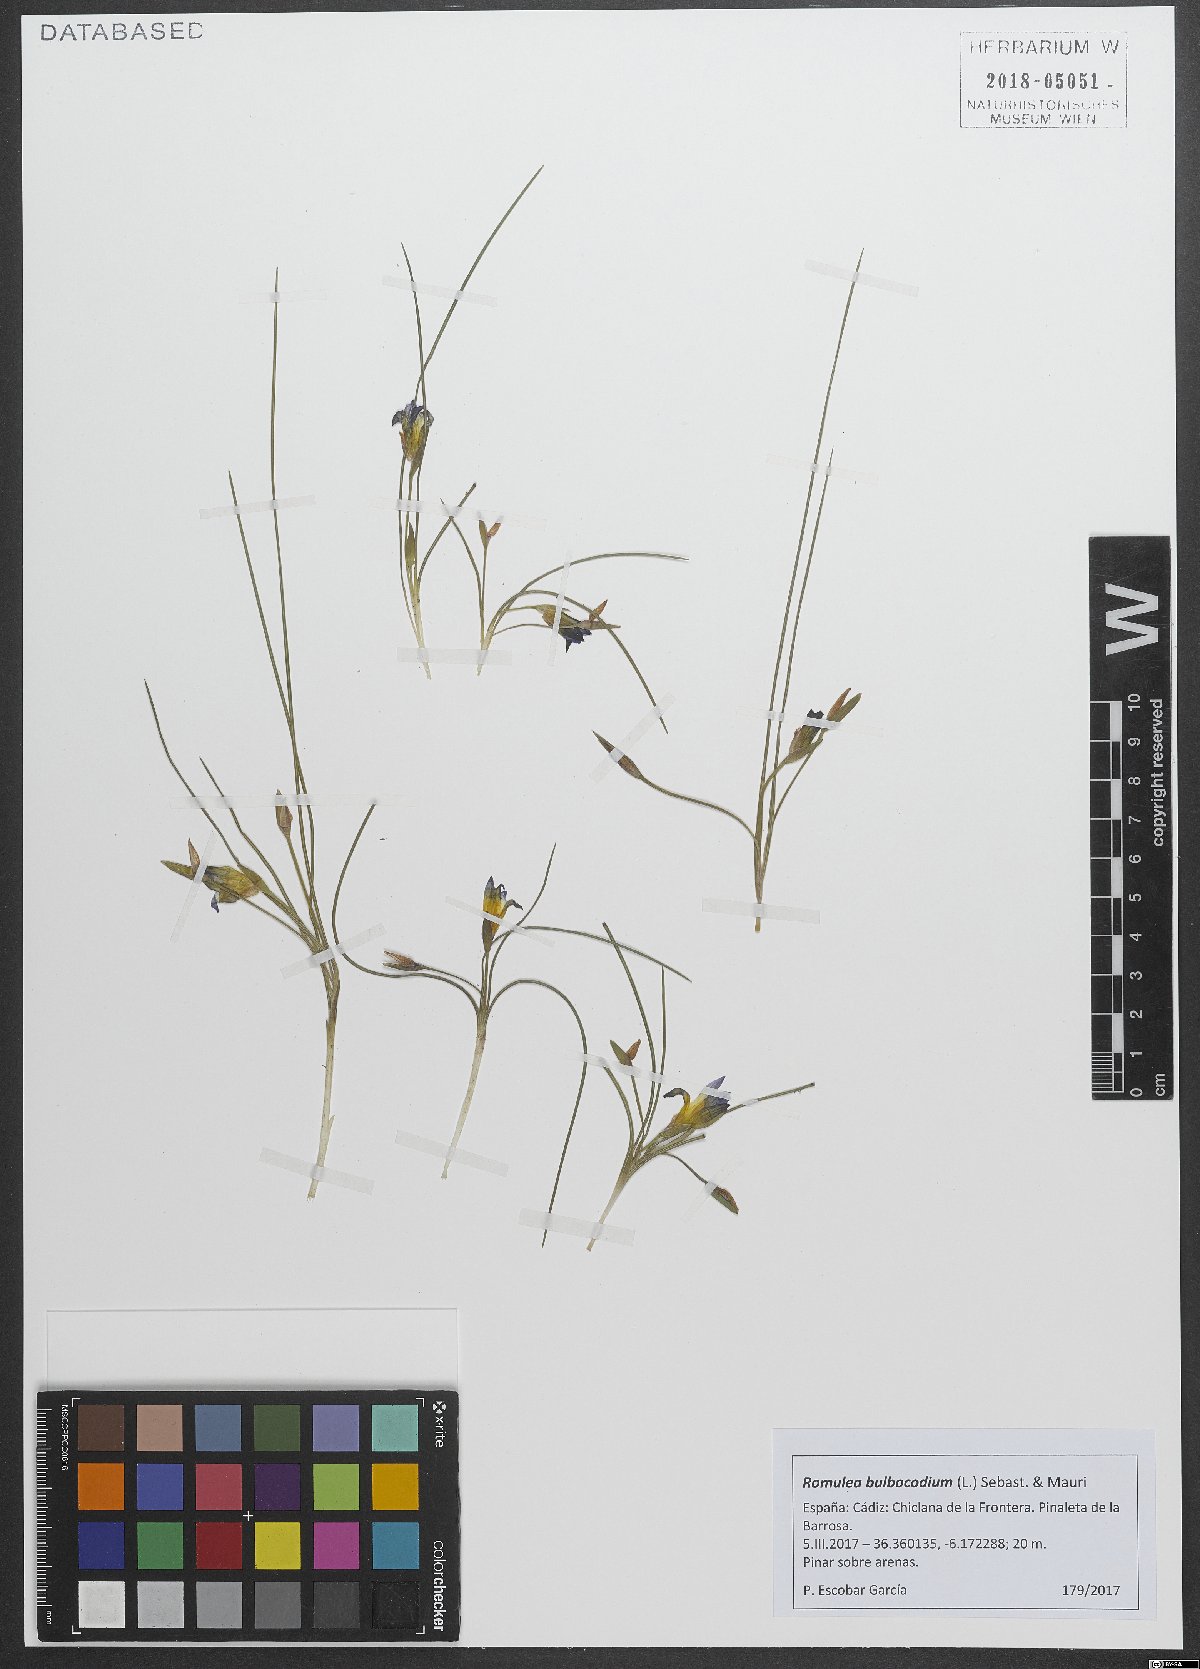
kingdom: Plantae
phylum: Tracheophyta
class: Liliopsida
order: Asparagales
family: Iridaceae
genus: Romulea
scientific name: Romulea bulbocodium
